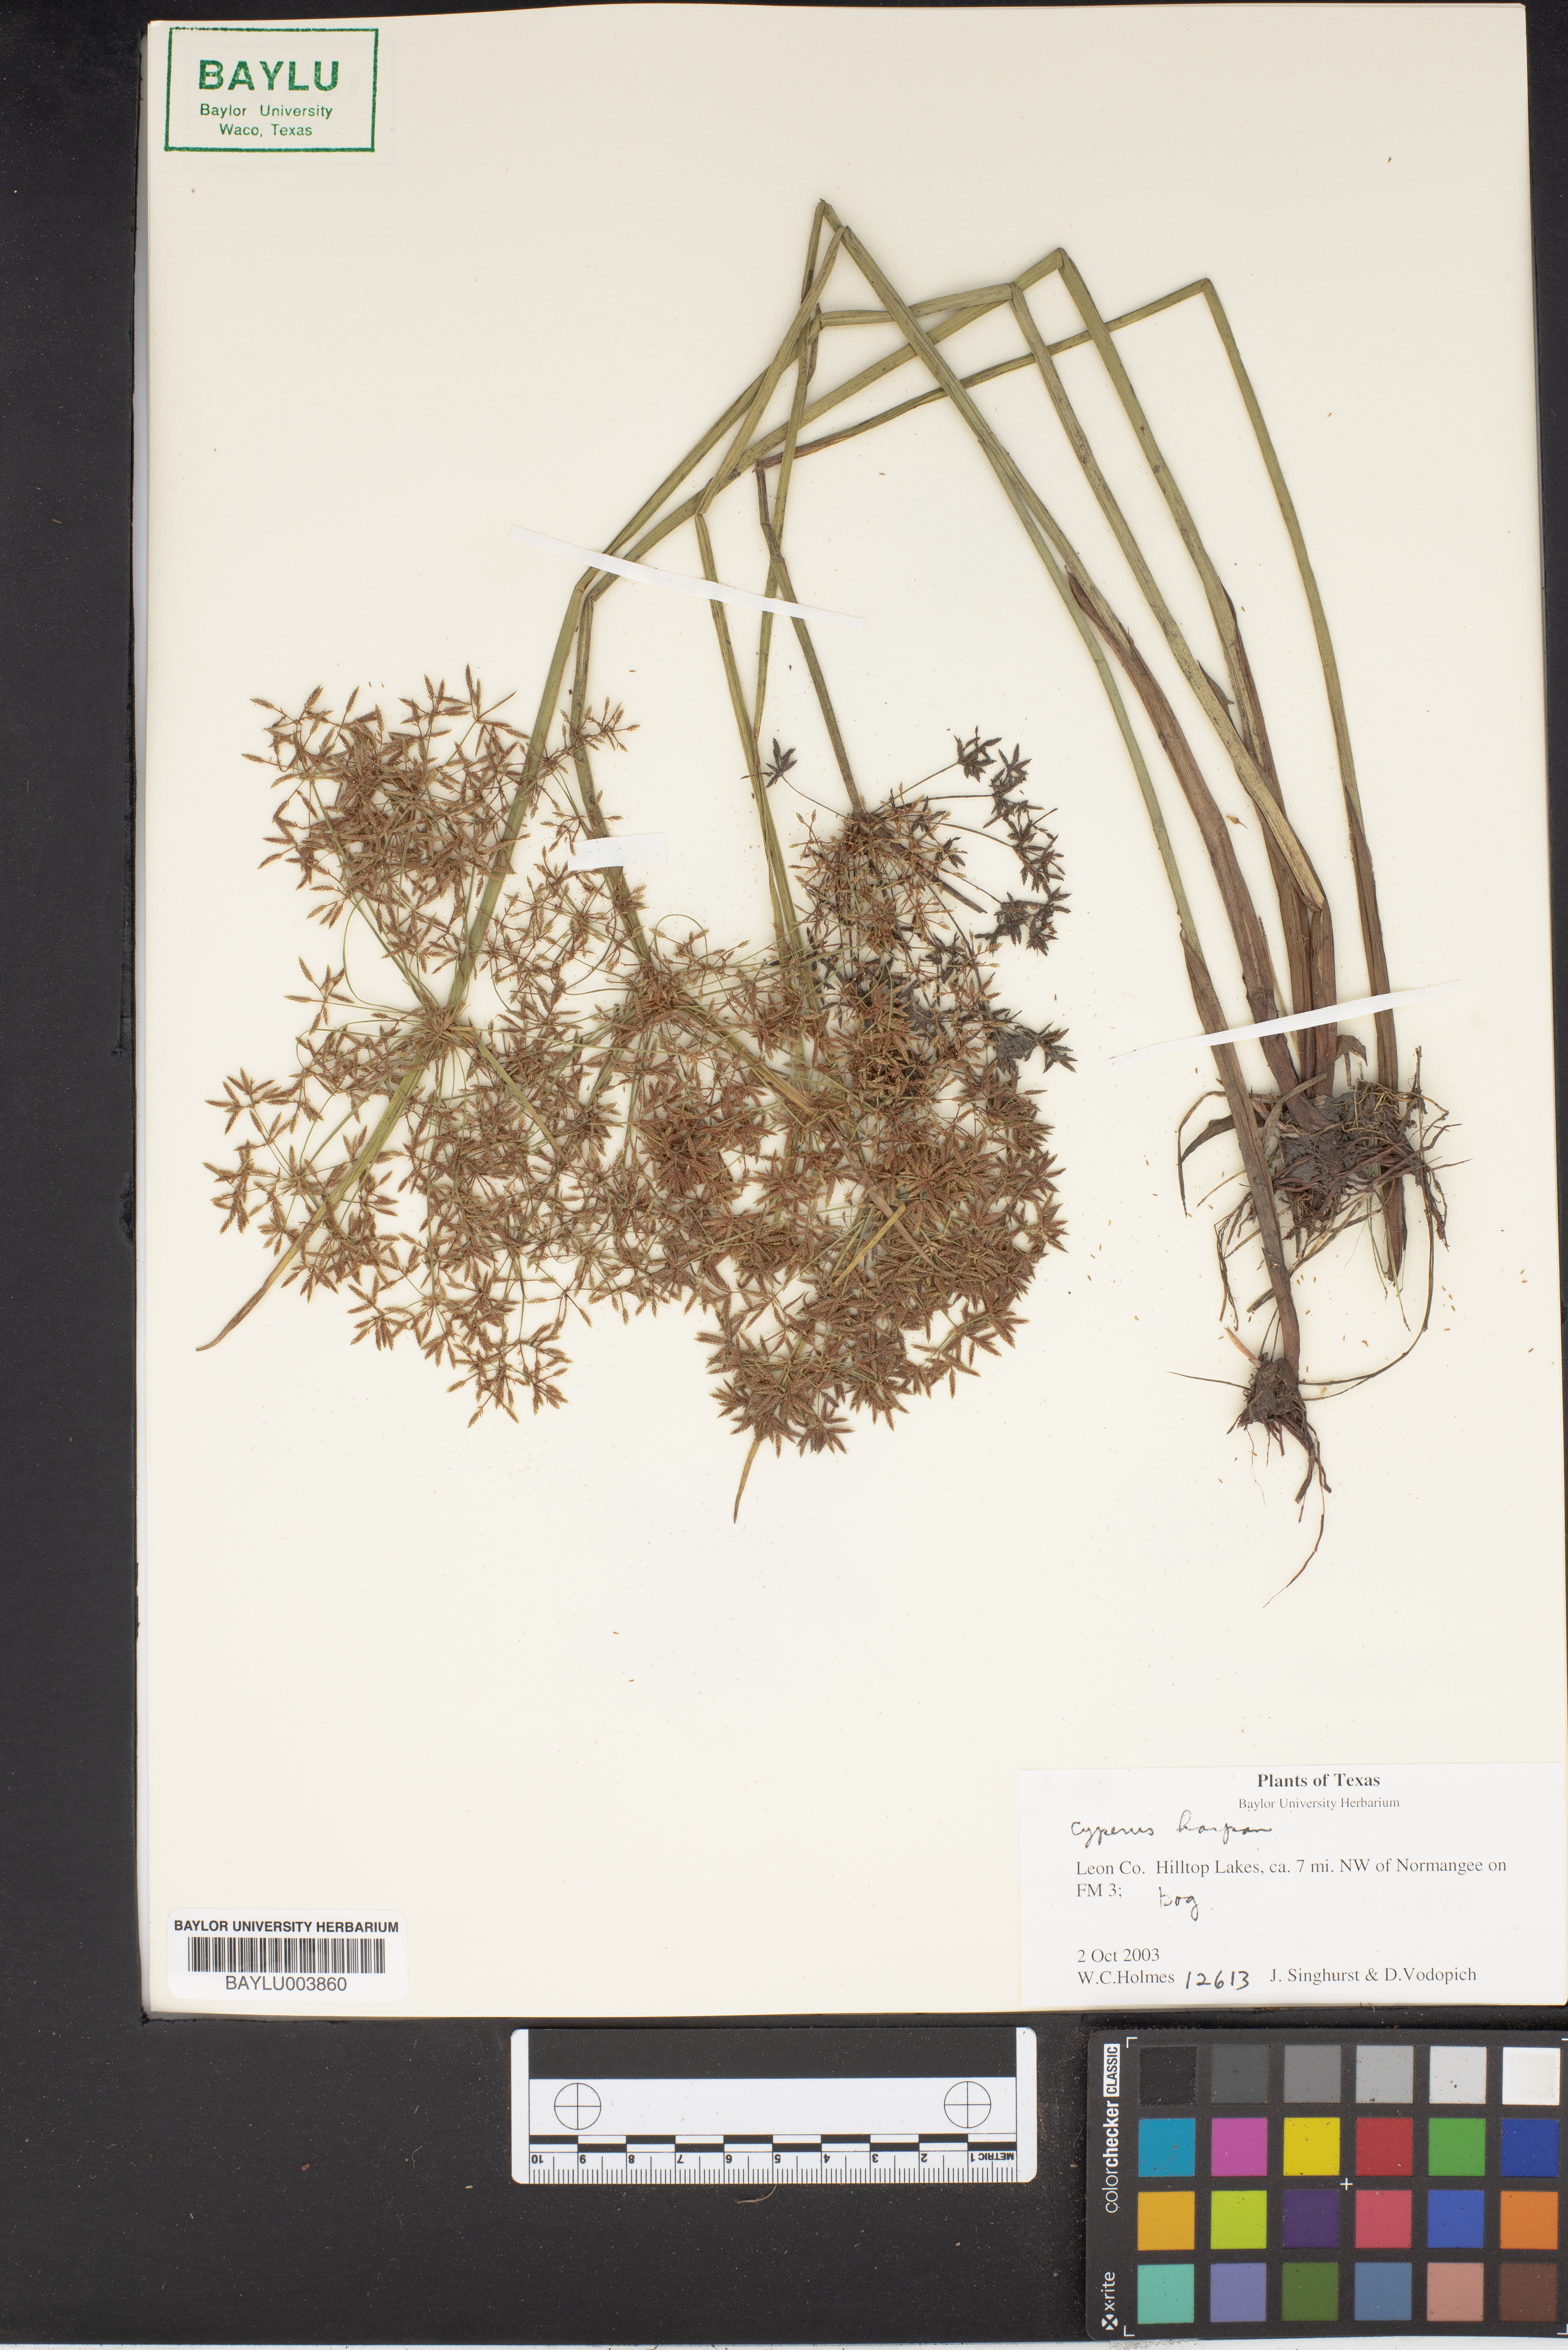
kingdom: Plantae
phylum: Tracheophyta
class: Liliopsida
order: Poales
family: Cyperaceae
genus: Cyperus
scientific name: Cyperus haspan
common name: Haspan flatsedge
